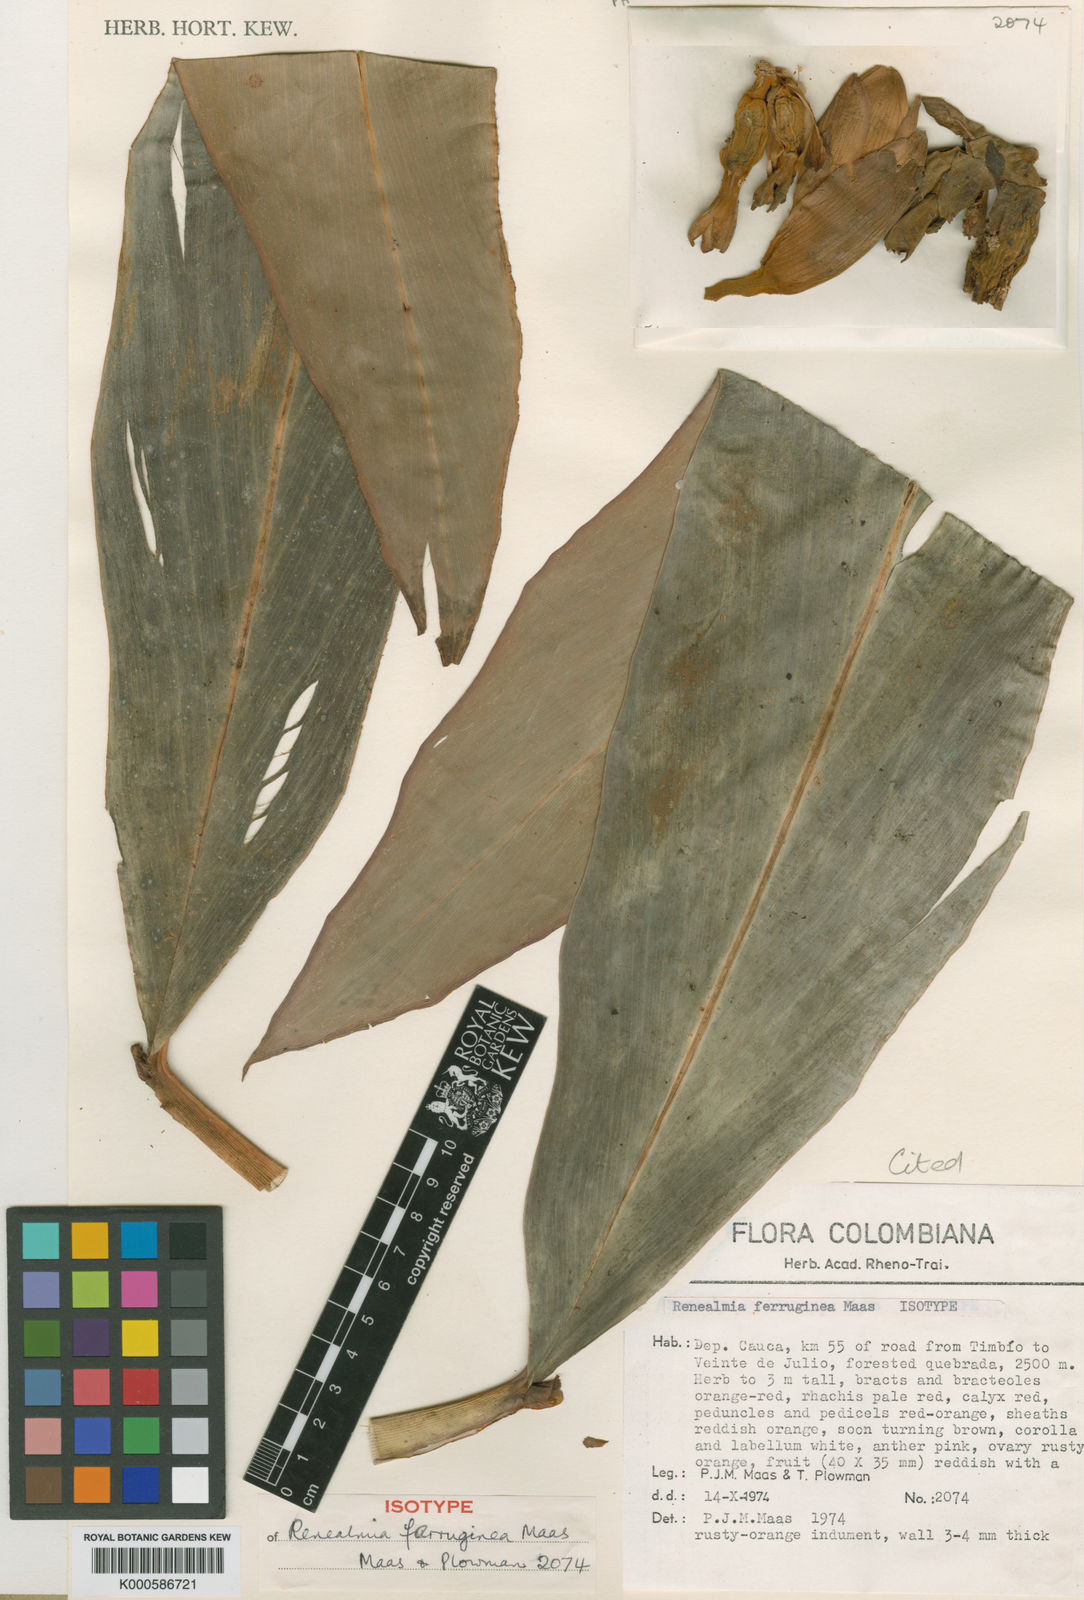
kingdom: Plantae
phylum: Tracheophyta
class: Liliopsida
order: Zingiberales
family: Zingiberaceae
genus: Renealmia
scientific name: Renealmia ferruginea
